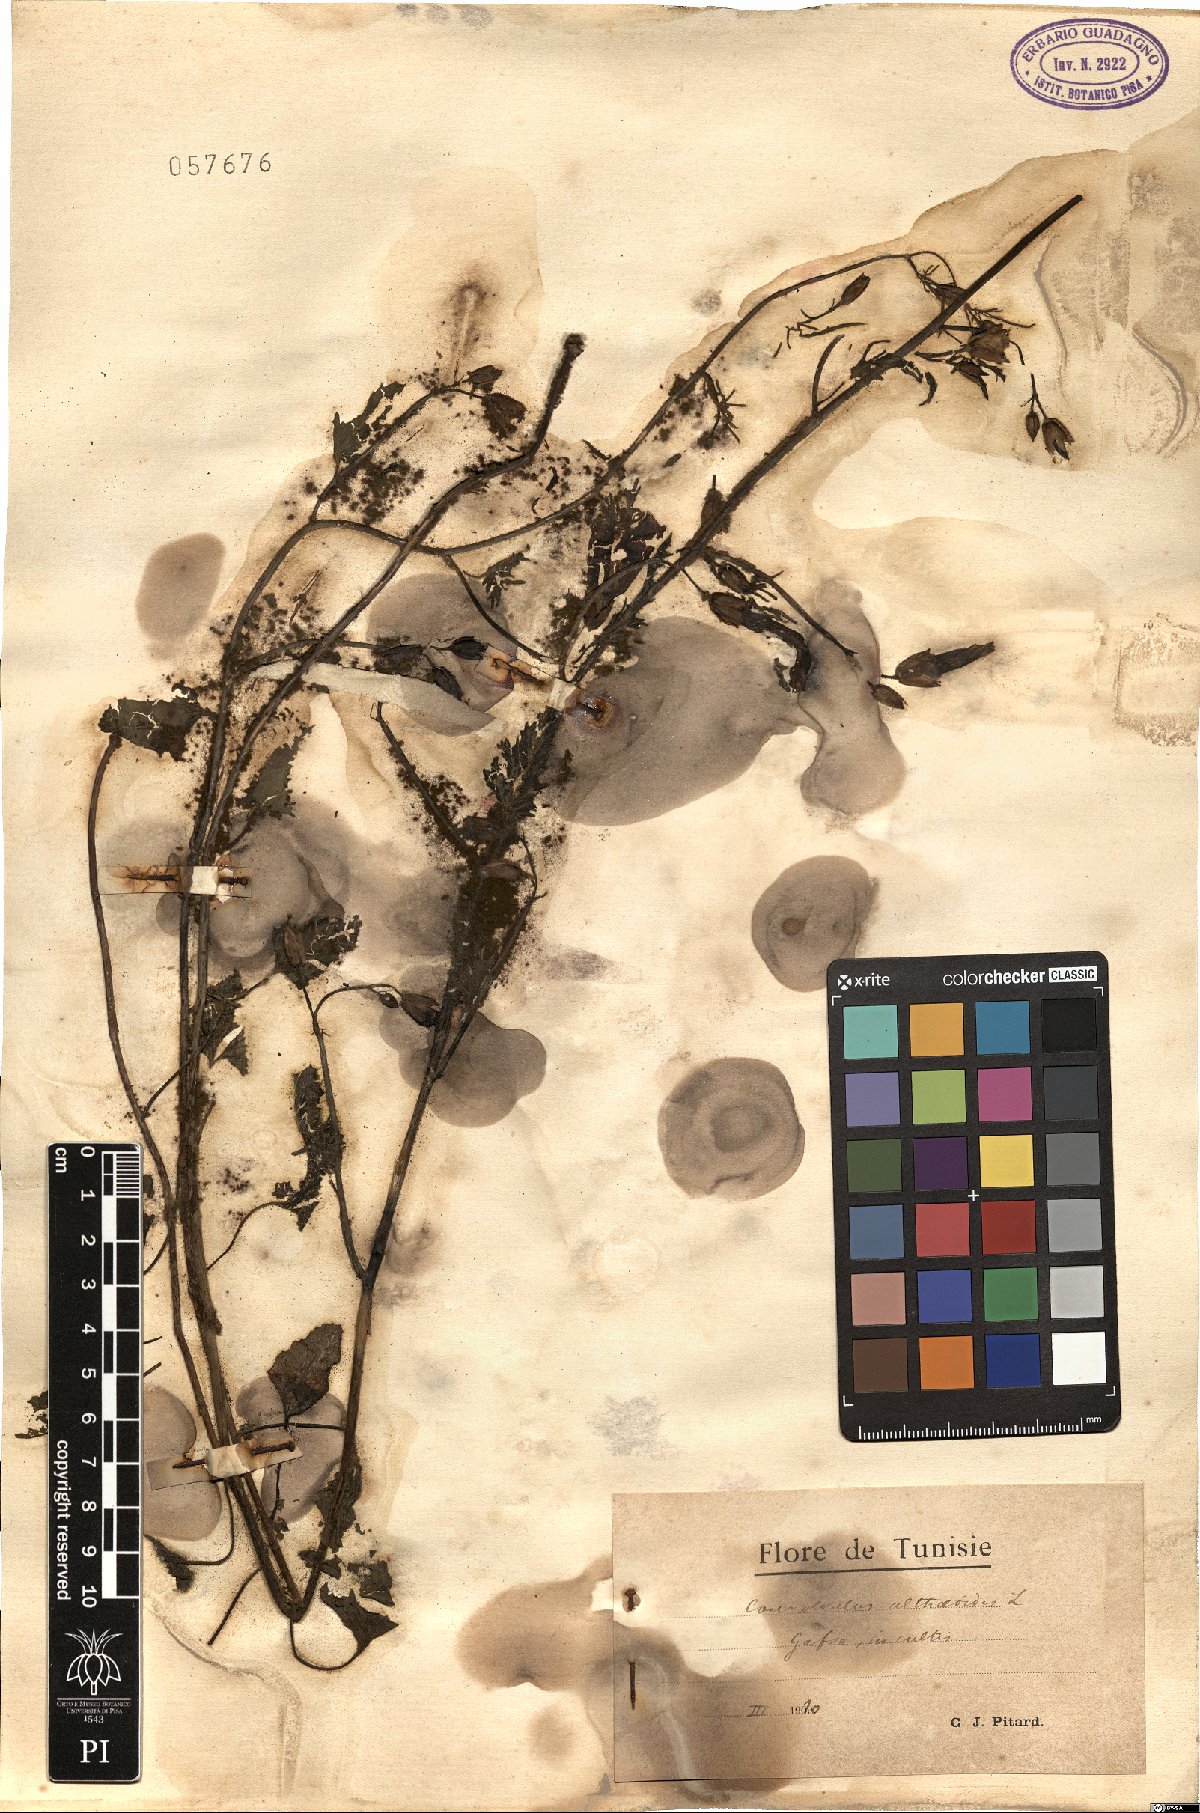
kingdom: Plantae
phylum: Tracheophyta
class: Magnoliopsida
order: Solanales
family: Convolvulaceae
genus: Convolvulus
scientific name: Convolvulus althaeoides
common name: Mallow bindweed
